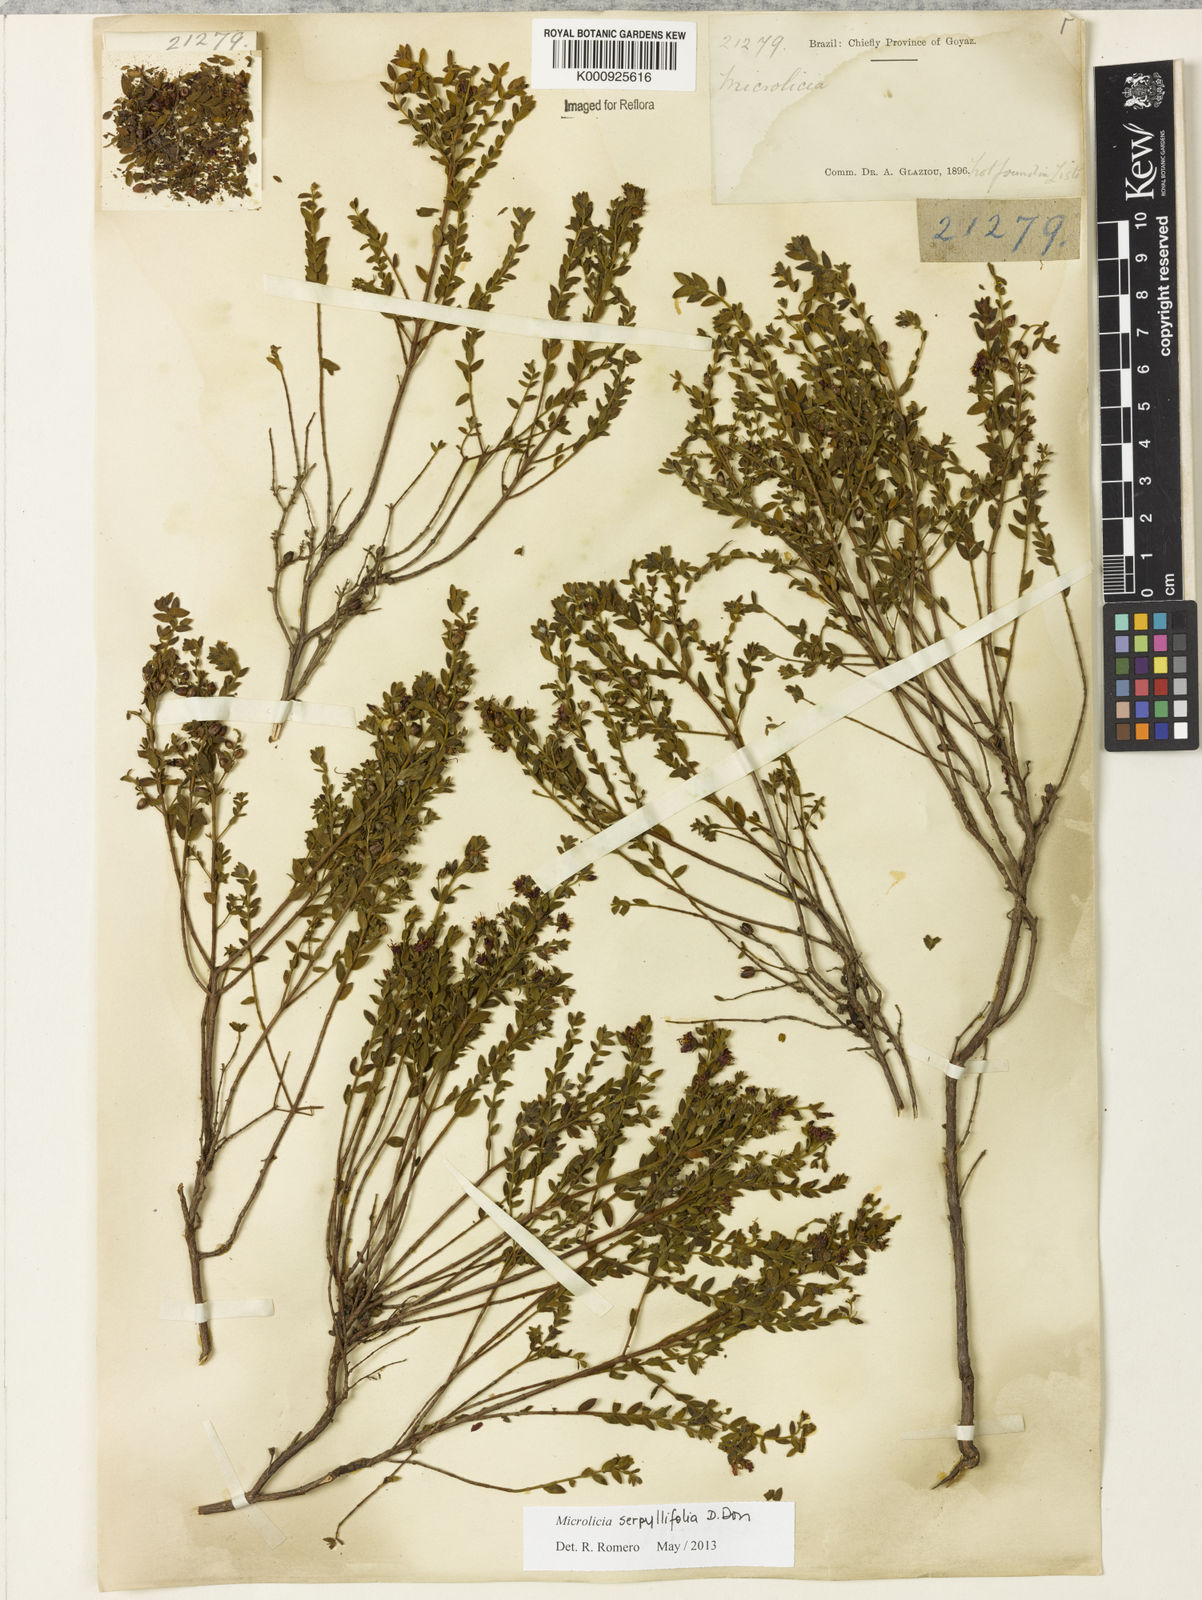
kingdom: Plantae
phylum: Tracheophyta
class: Magnoliopsida
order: Myrtales
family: Melastomataceae
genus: Microlicia
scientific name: Microlicia fulva
